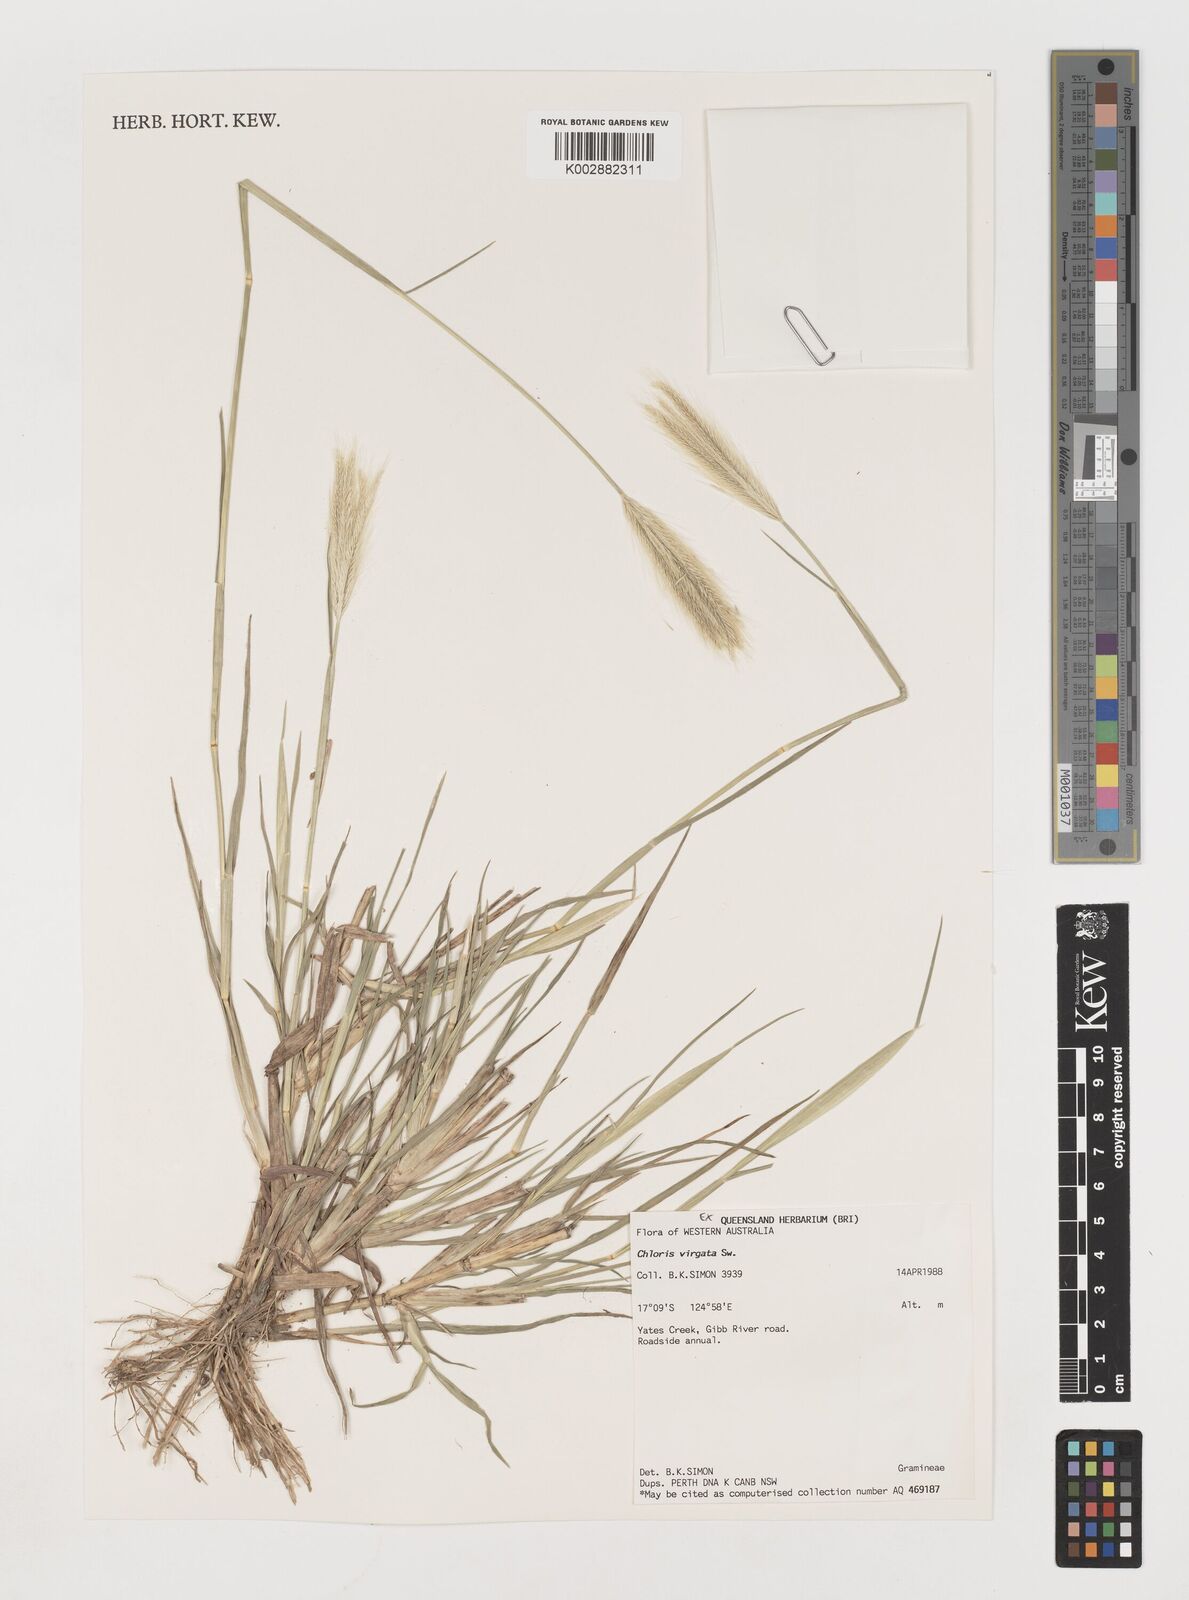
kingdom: Plantae
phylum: Tracheophyta
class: Liliopsida
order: Poales
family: Poaceae
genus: Chloris
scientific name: Chloris virgata
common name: Feathery rhodes-grass
